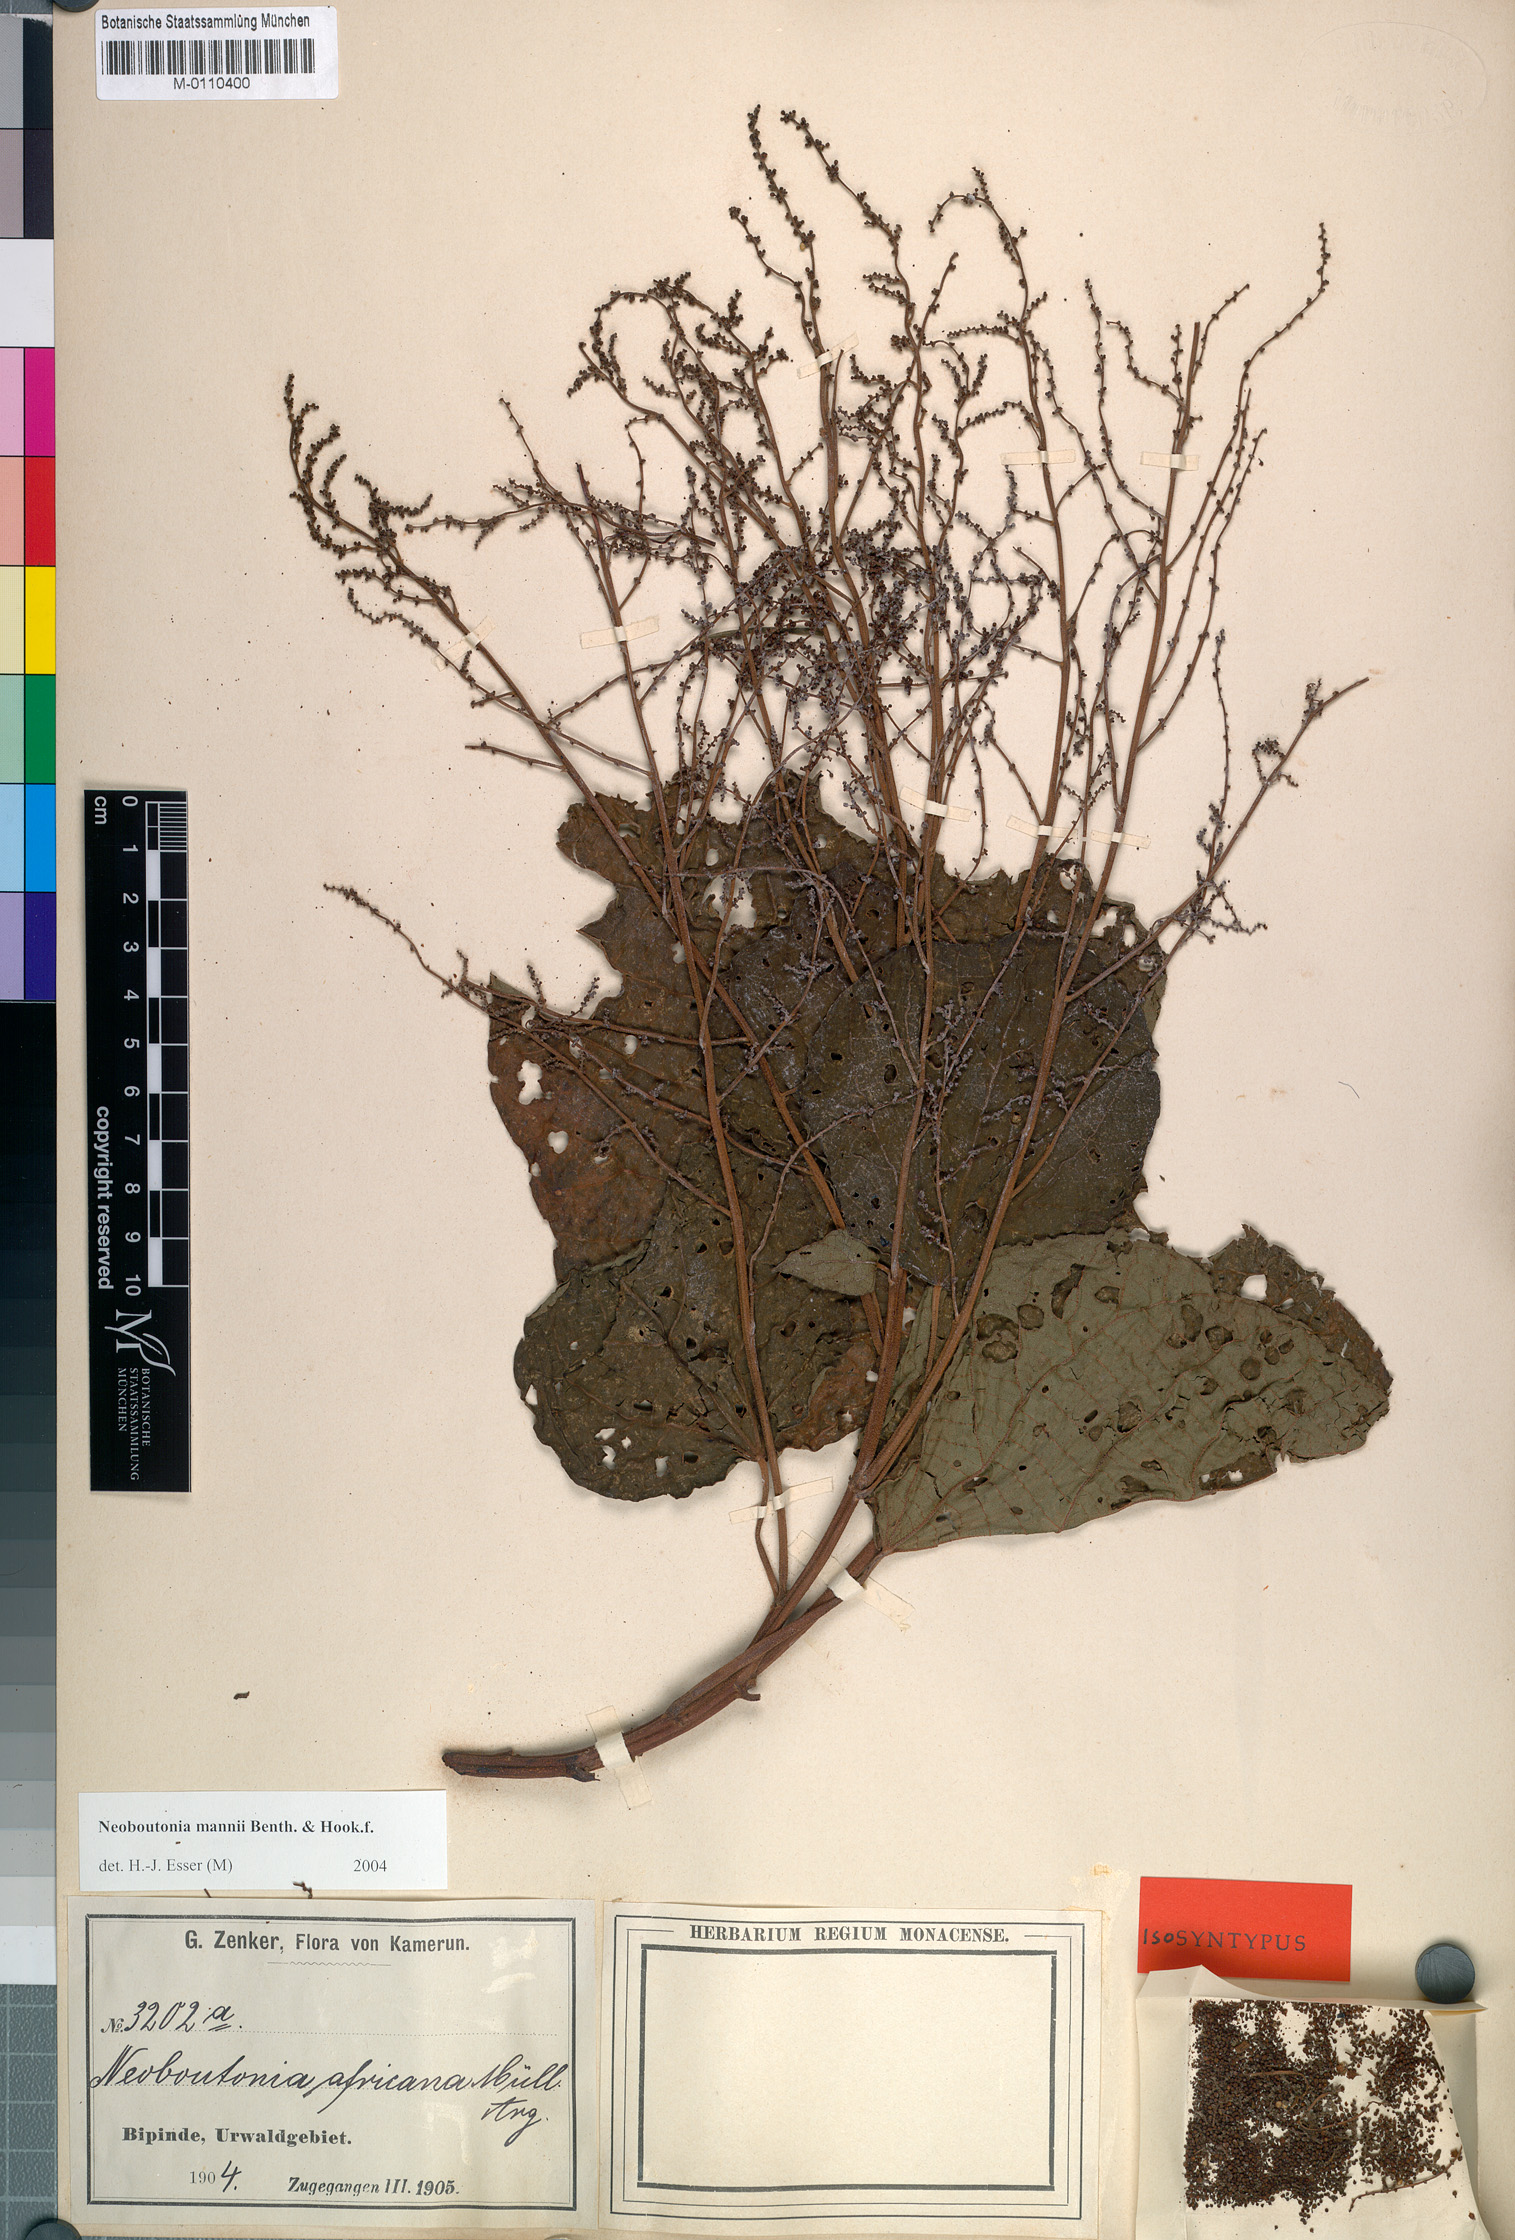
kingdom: Plantae
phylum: Tracheophyta
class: Magnoliopsida
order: Malpighiales
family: Euphorbiaceae
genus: Neoboutonia
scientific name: Neoboutonia mannii
